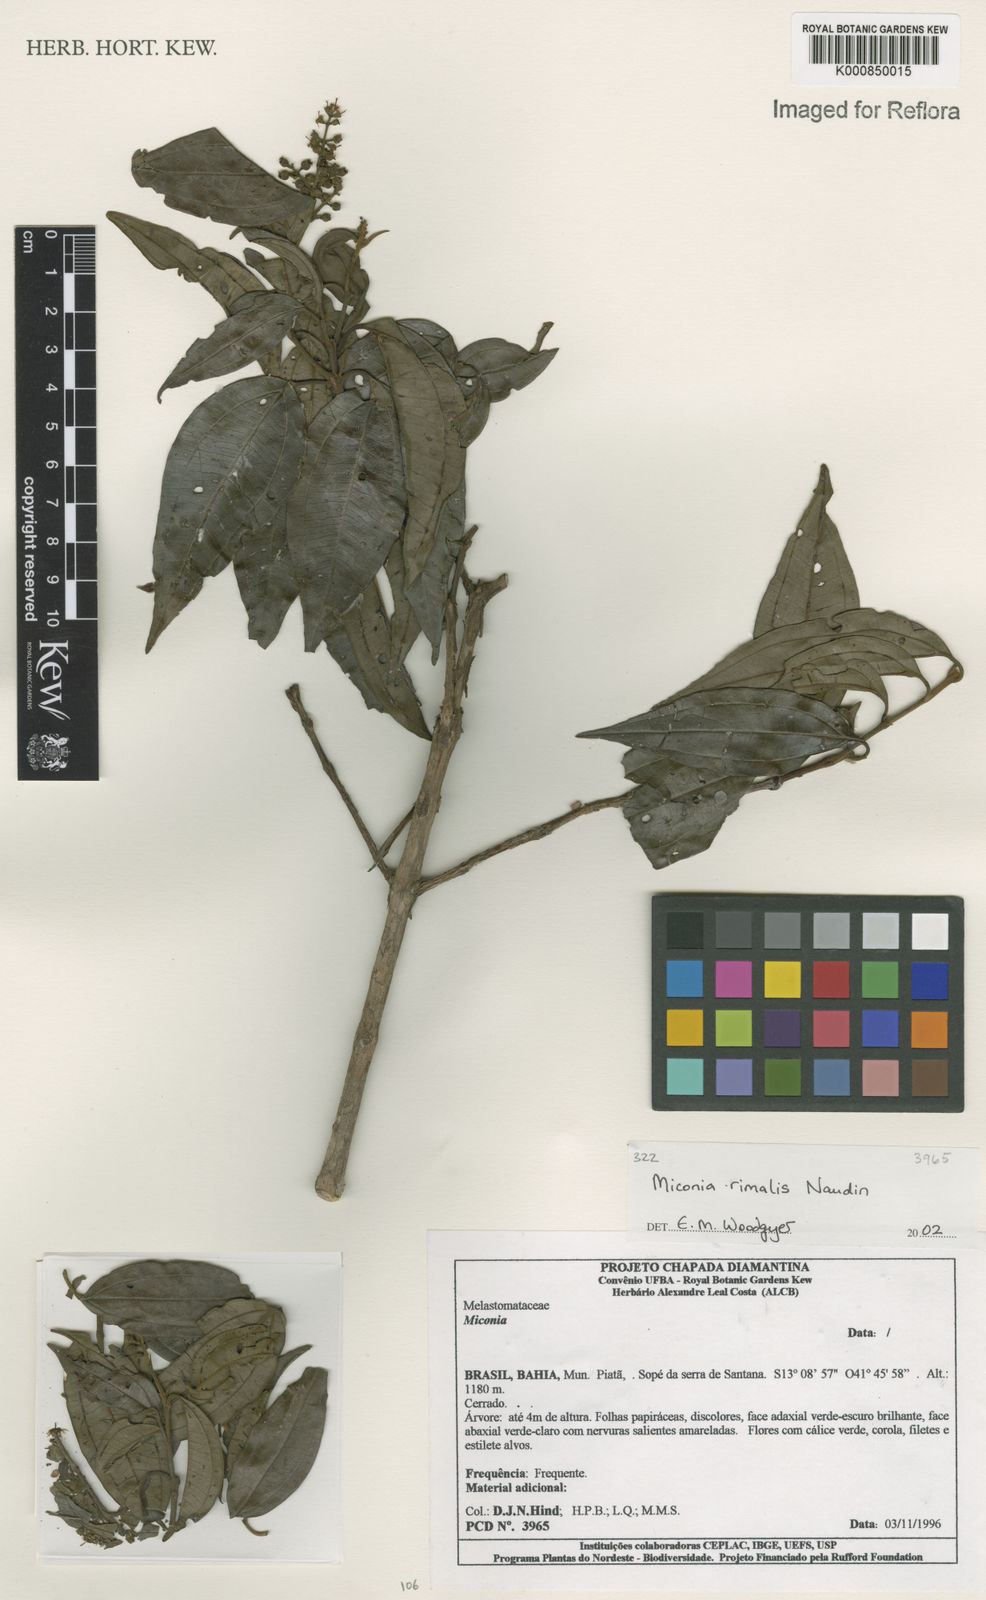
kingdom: Plantae
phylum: Tracheophyta
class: Magnoliopsida
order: Myrtales
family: Melastomataceae
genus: Miconia
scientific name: Miconia
